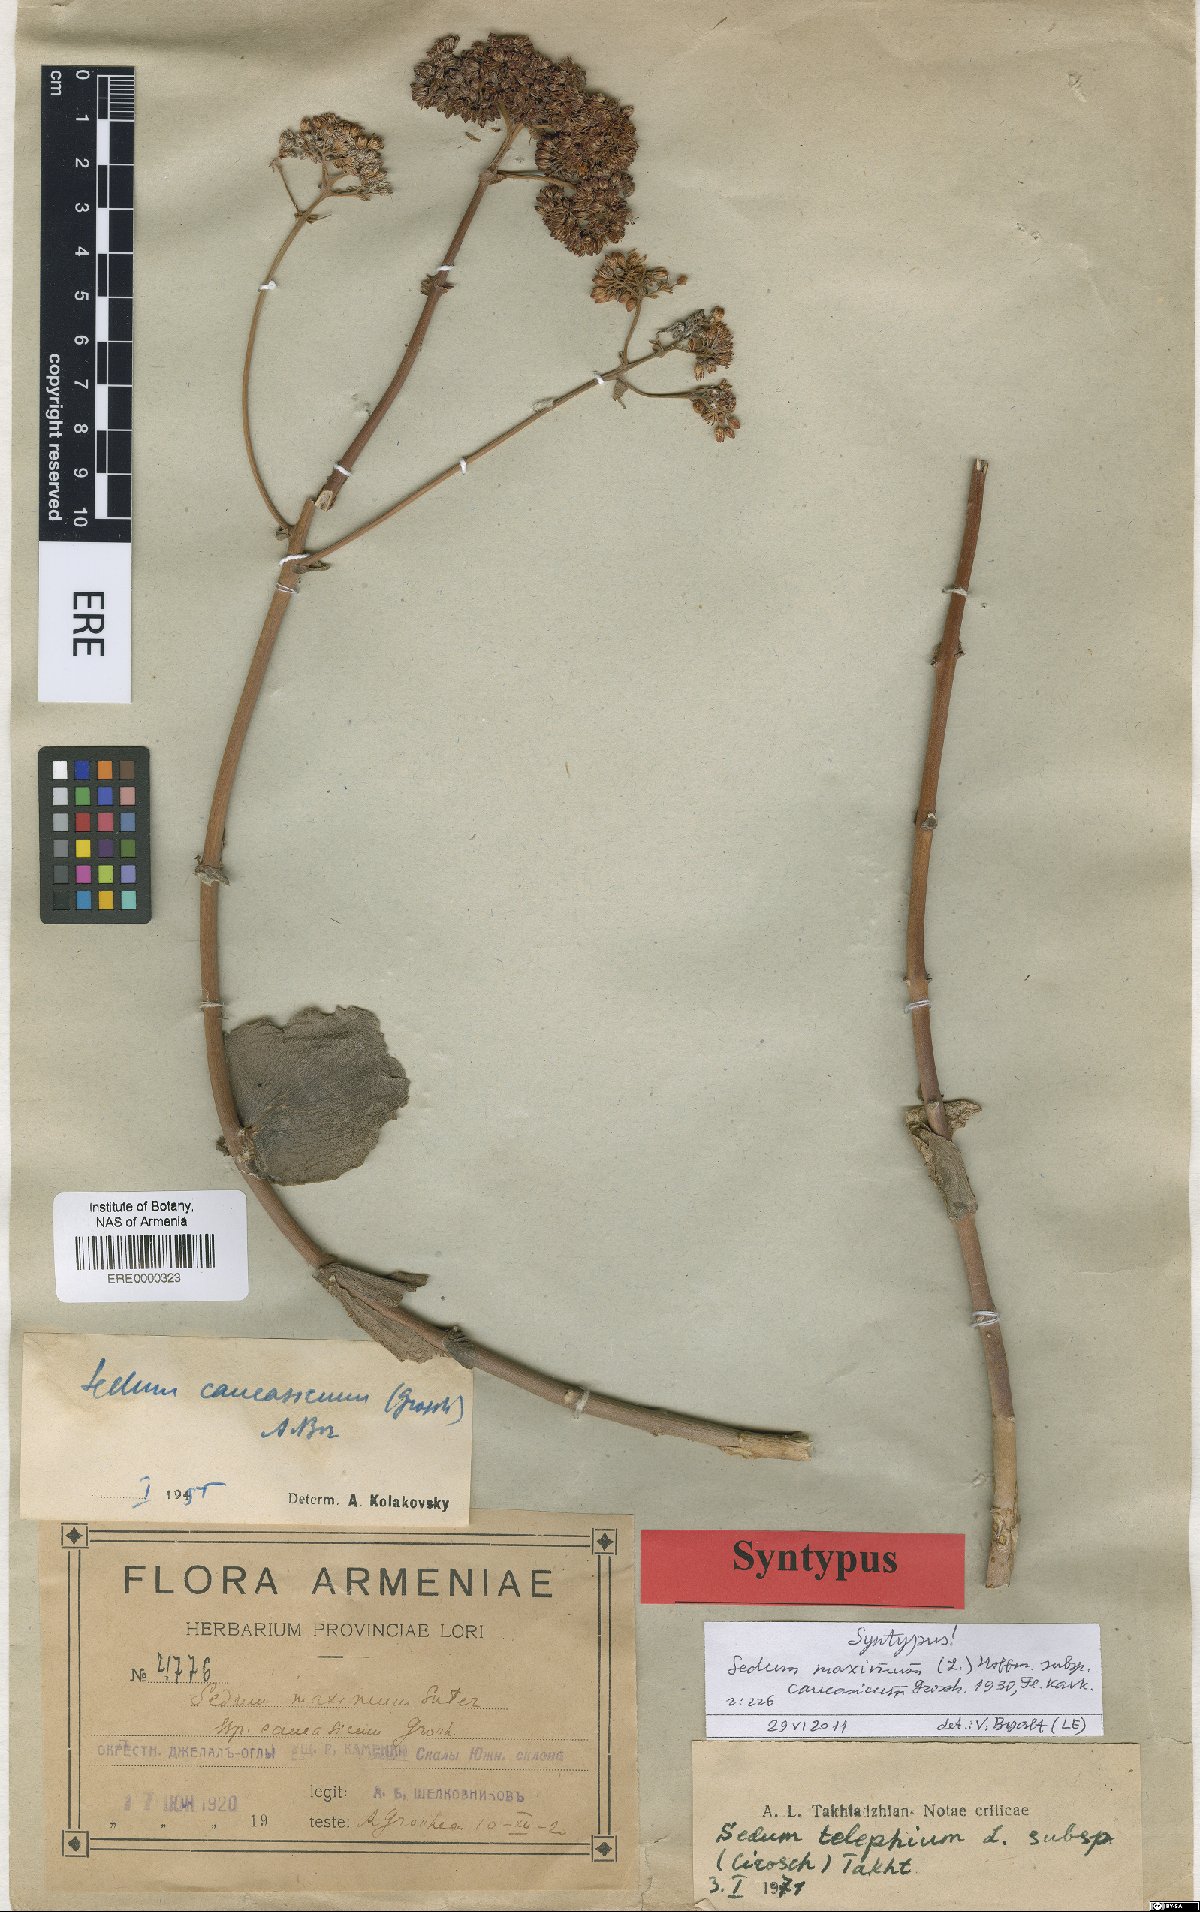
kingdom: Plantae
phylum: Tracheophyta
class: Magnoliopsida
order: Saxifragales
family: Crassulaceae
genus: Hylotelephium
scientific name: Hylotelephium maximum
